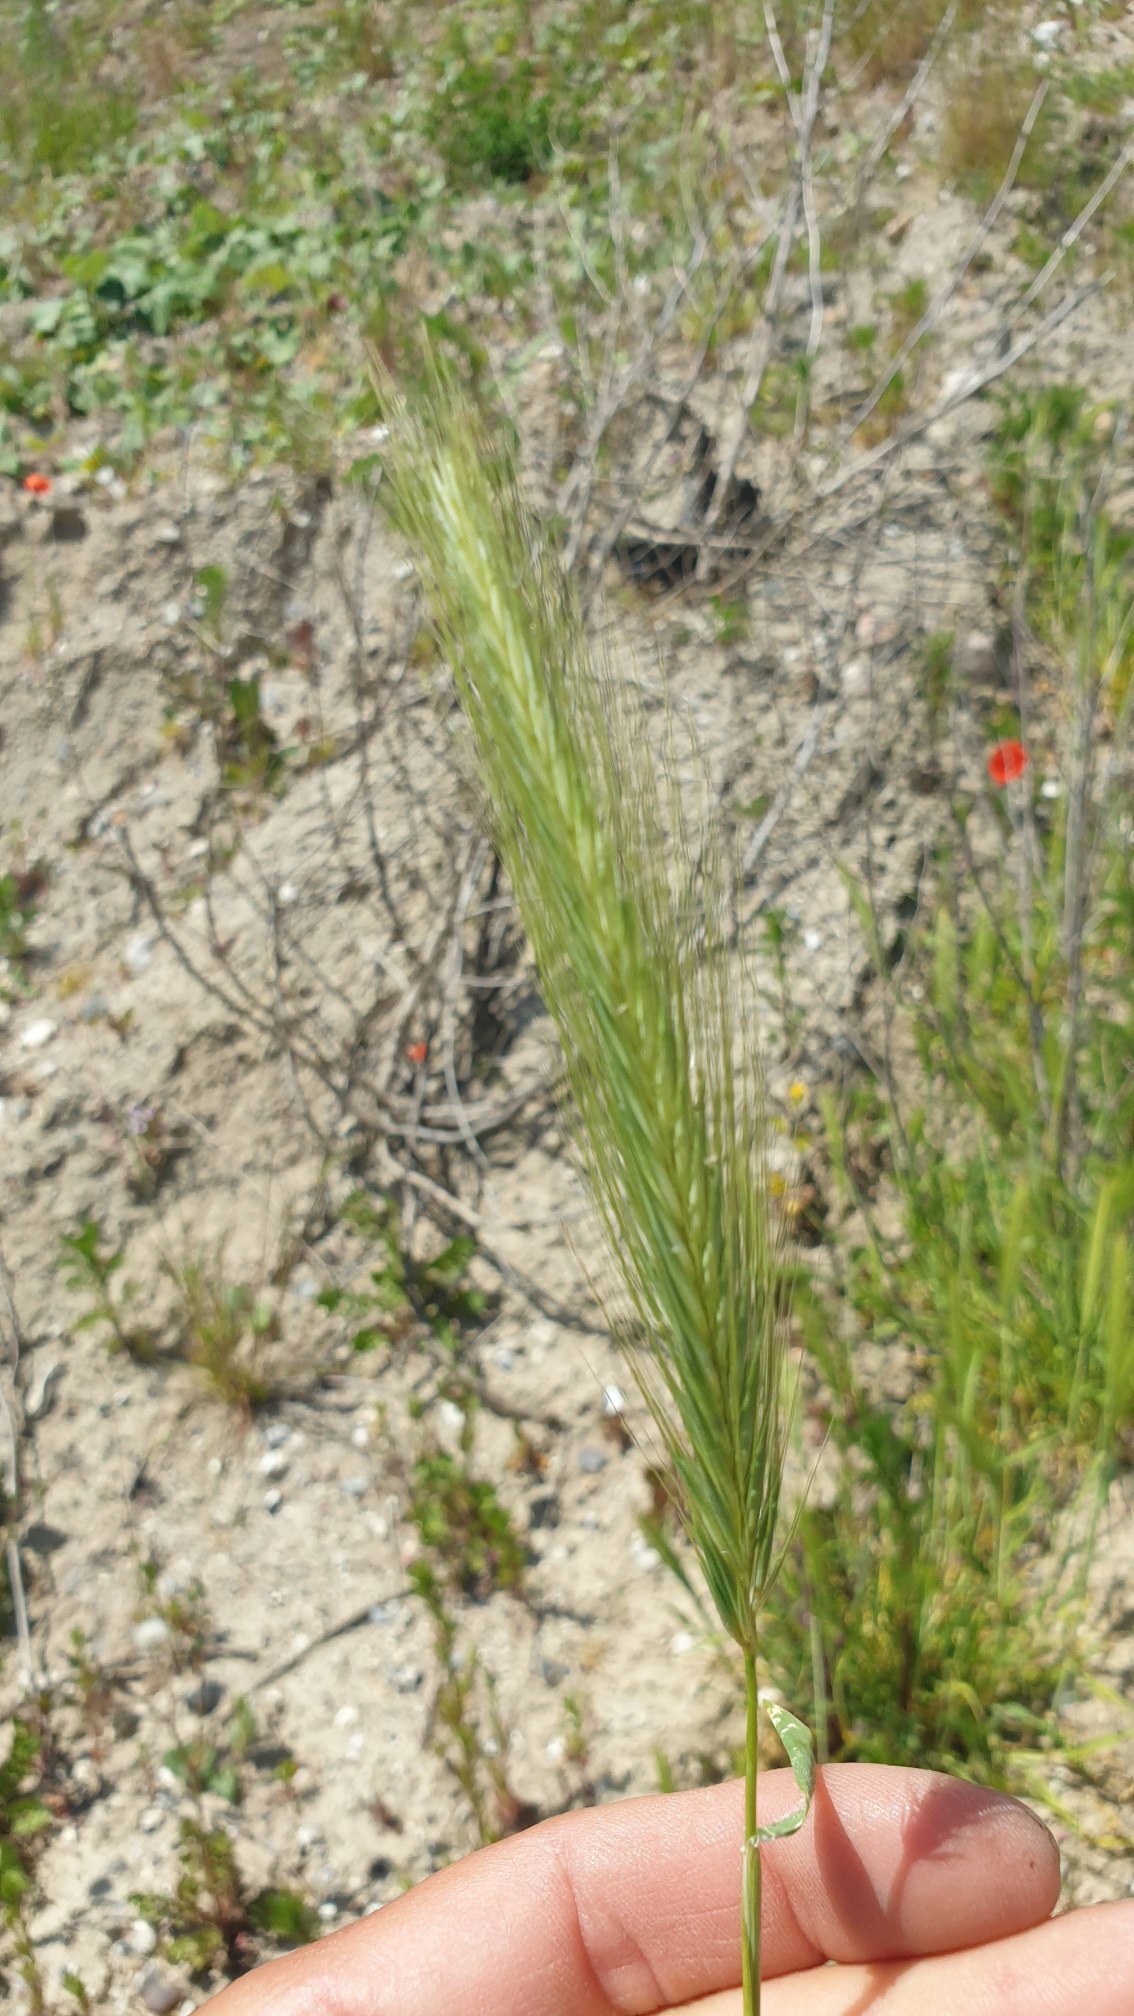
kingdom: Plantae
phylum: Tracheophyta
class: Liliopsida
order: Poales
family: Poaceae
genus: Hordeum
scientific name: Hordeum murinum
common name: Gold byg
